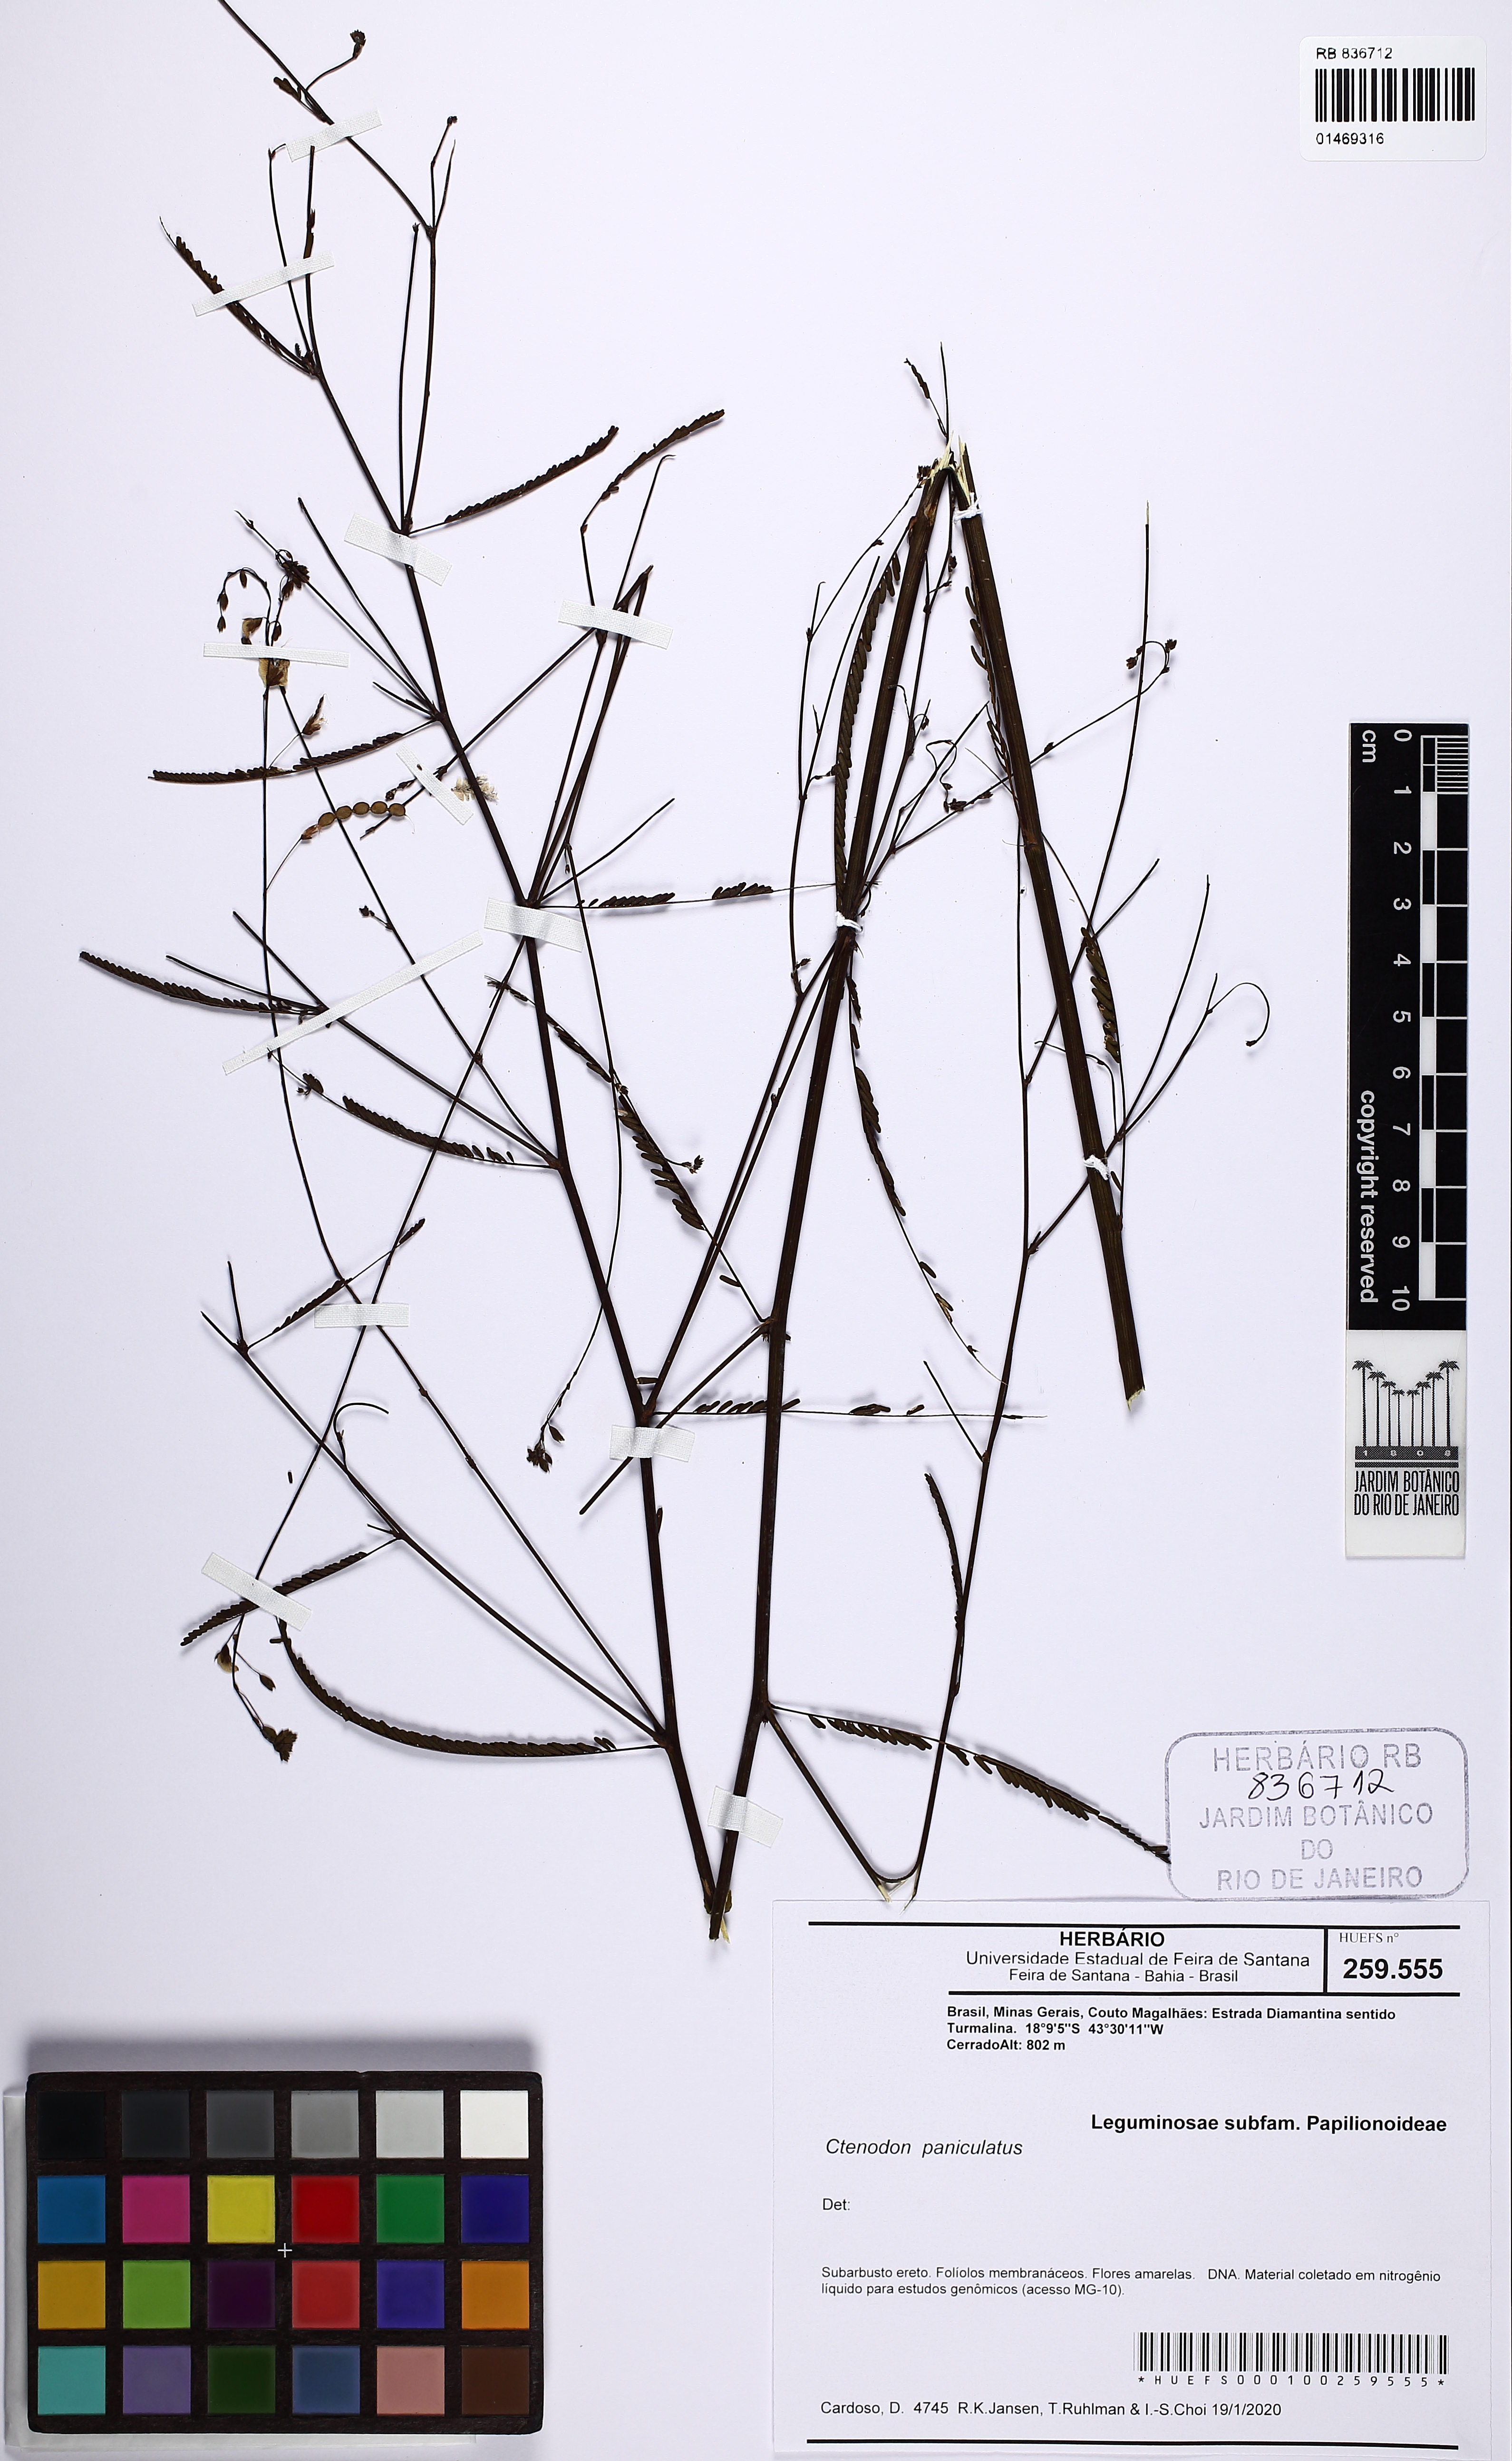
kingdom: Plantae
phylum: Tracheophyta
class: Magnoliopsida
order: Fabales
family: Fabaceae
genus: Ctenodon
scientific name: Ctenodon paniculatus
